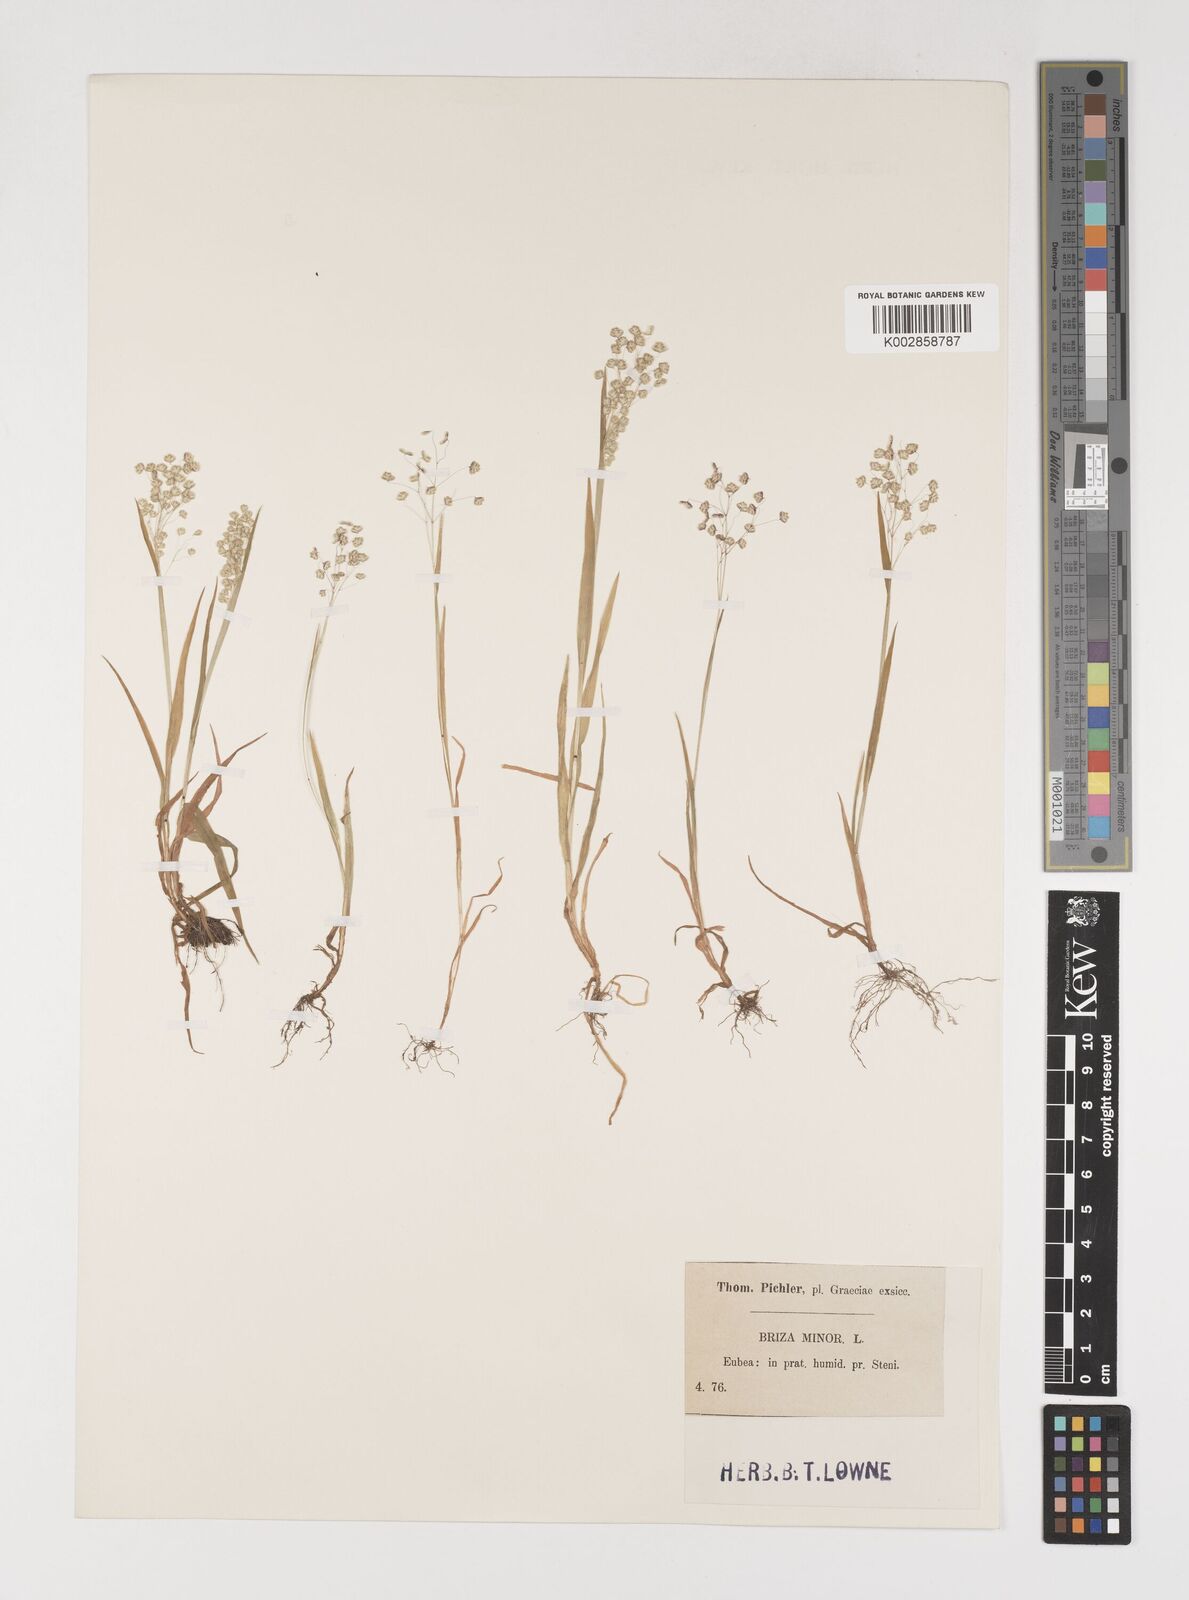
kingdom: Plantae
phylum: Tracheophyta
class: Liliopsida
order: Poales
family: Poaceae
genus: Briza
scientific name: Briza minor
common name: Lesser quaking-grass
